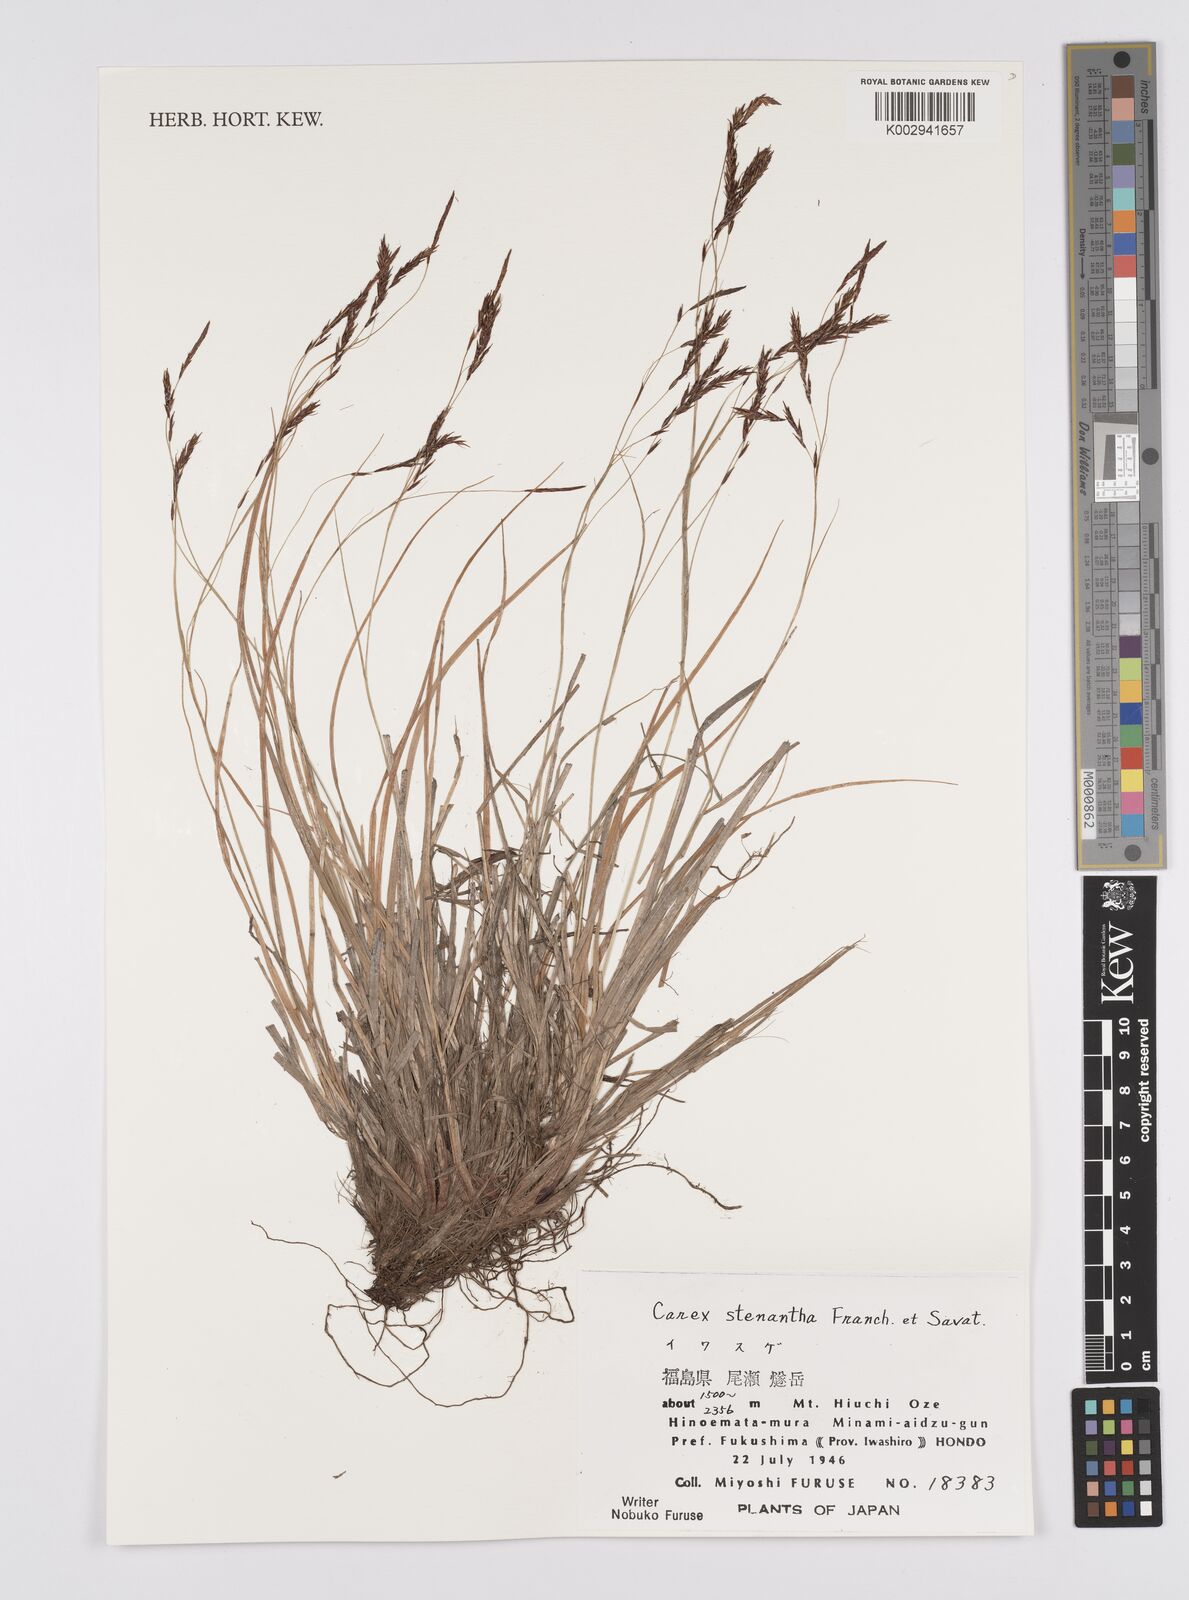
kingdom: Plantae
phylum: Tracheophyta
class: Liliopsida
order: Poales
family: Cyperaceae
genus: Carex
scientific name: Carex stenantha
